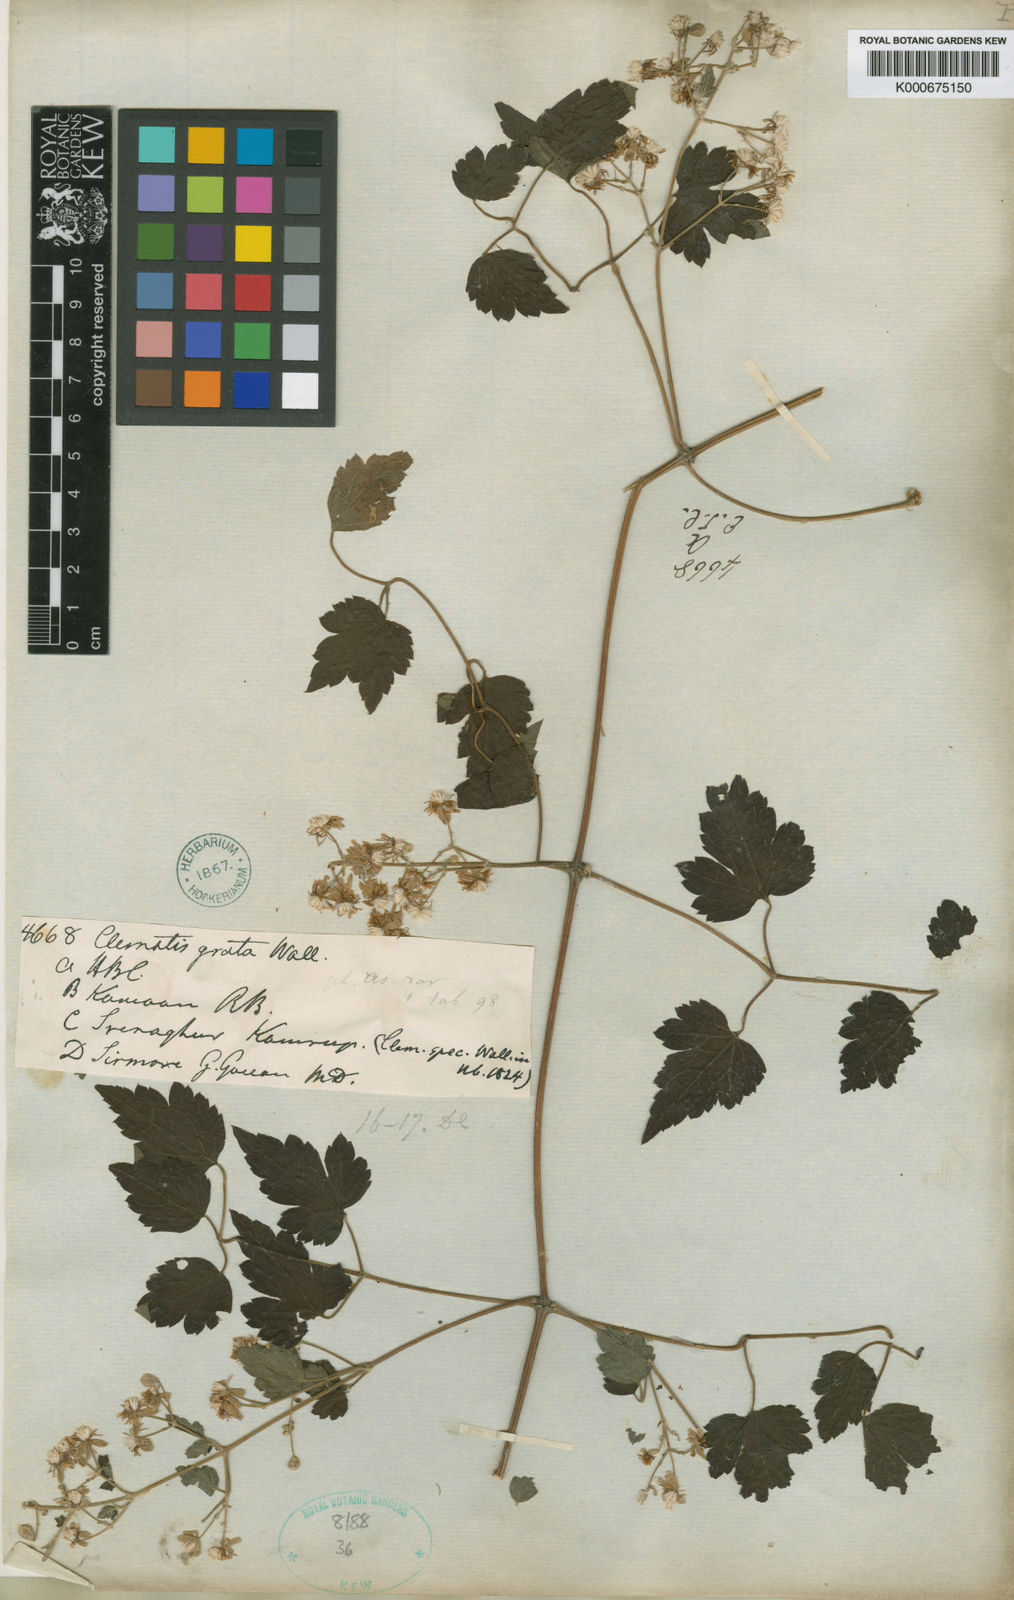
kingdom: Plantae
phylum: Tracheophyta
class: Magnoliopsida
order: Ranunculales
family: Ranunculaceae
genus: Clematis
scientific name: Clematis grata
